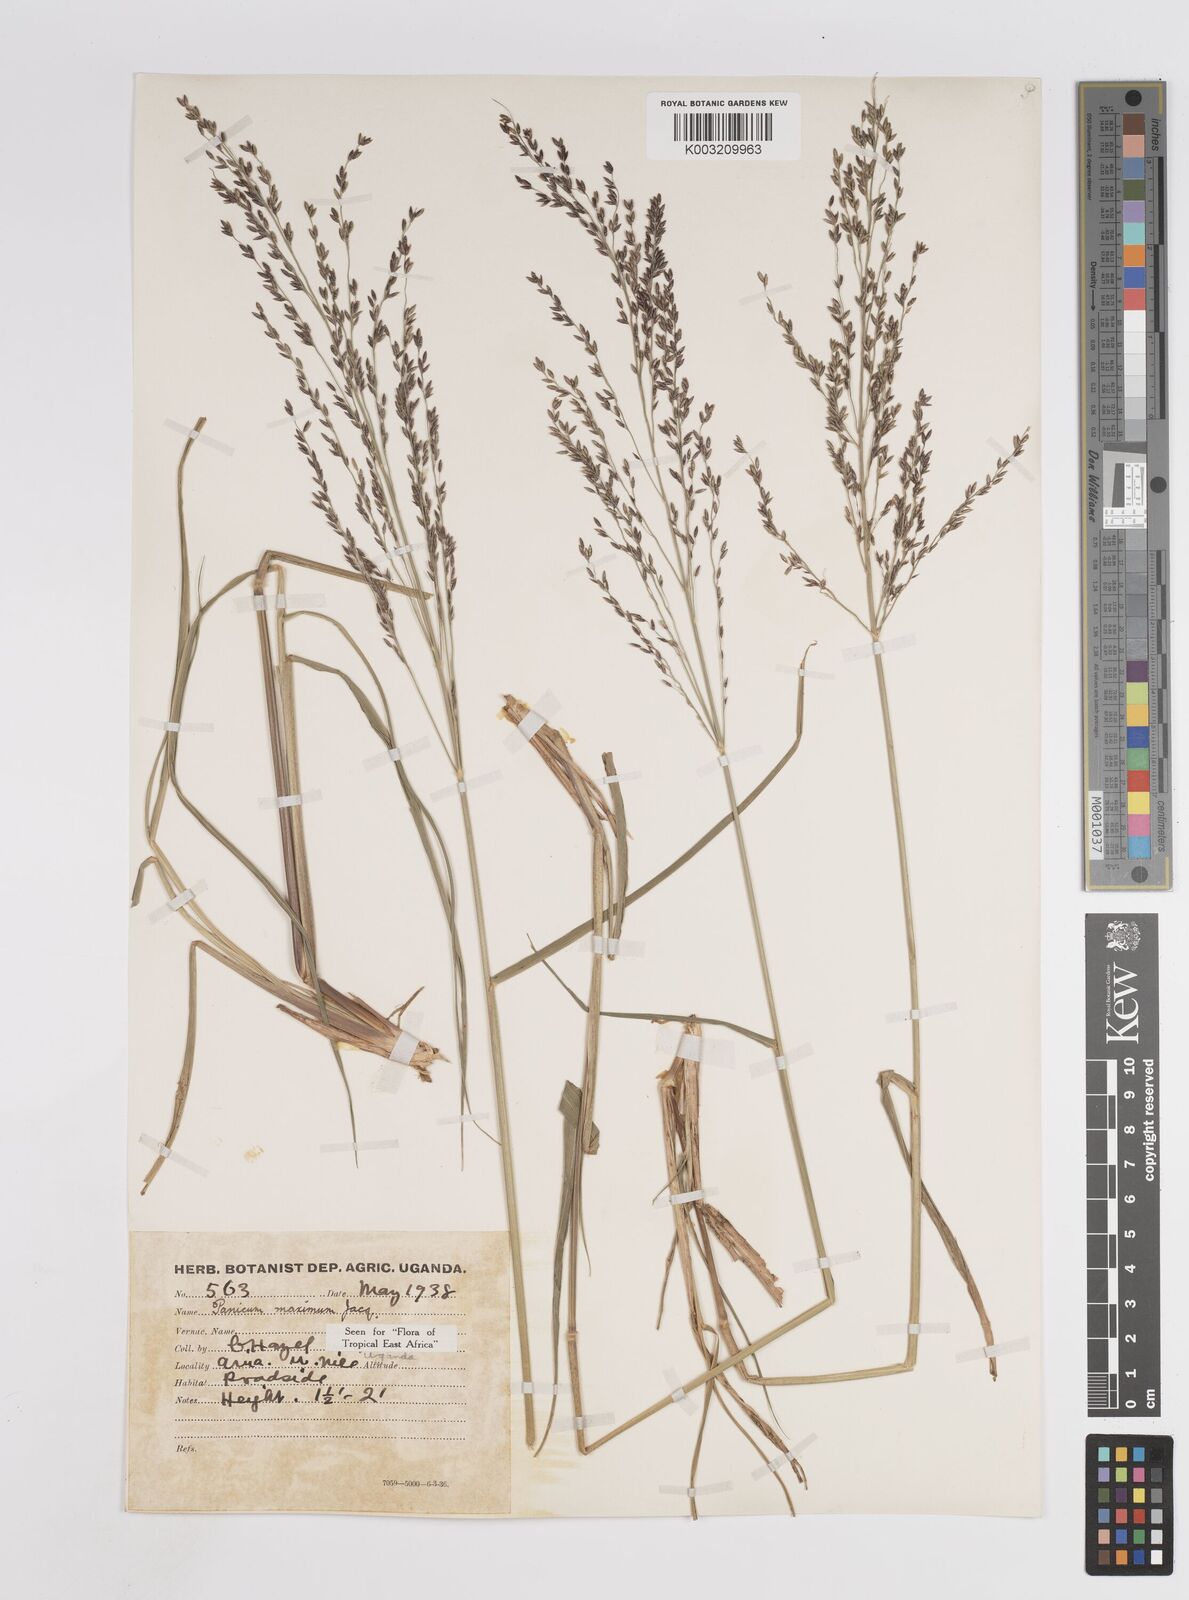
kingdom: Plantae
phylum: Tracheophyta
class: Liliopsida
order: Poales
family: Poaceae
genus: Megathyrsus
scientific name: Megathyrsus maximus
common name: Guineagrass
